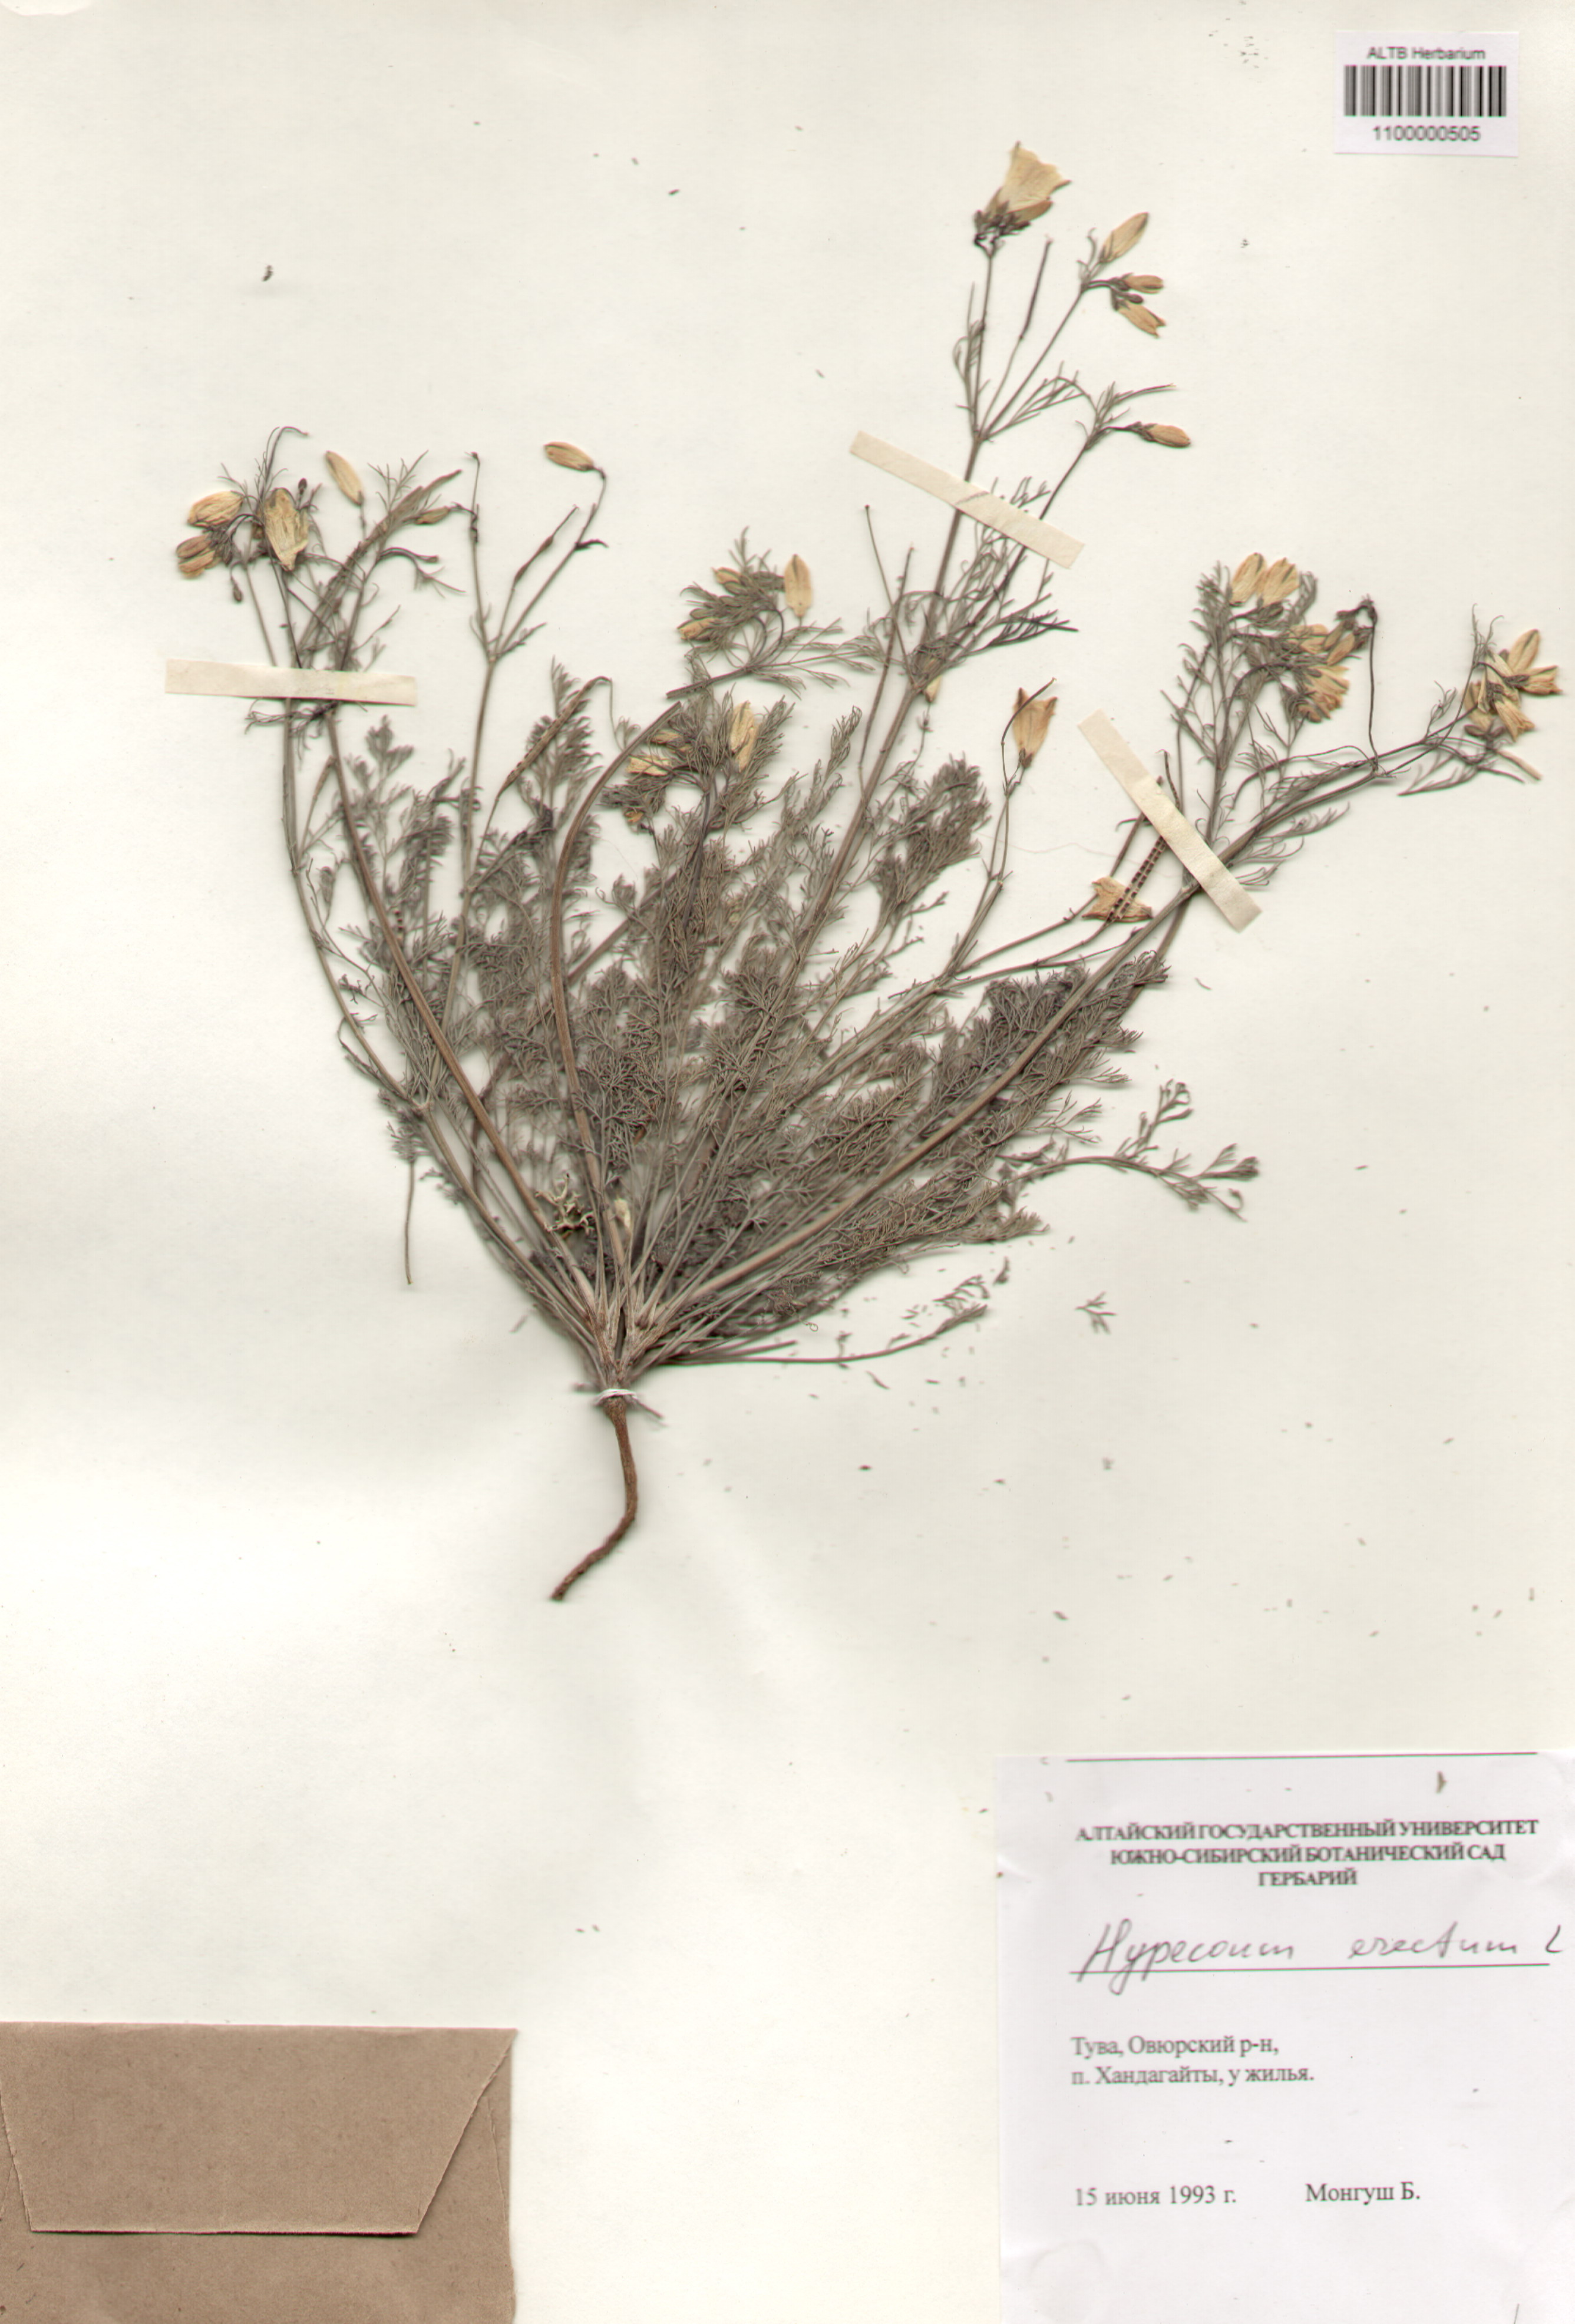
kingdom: Plantae
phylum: Tracheophyta
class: Magnoliopsida
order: Ranunculales
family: Papaveraceae
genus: Hypecoum
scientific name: Hypecoum erectum
